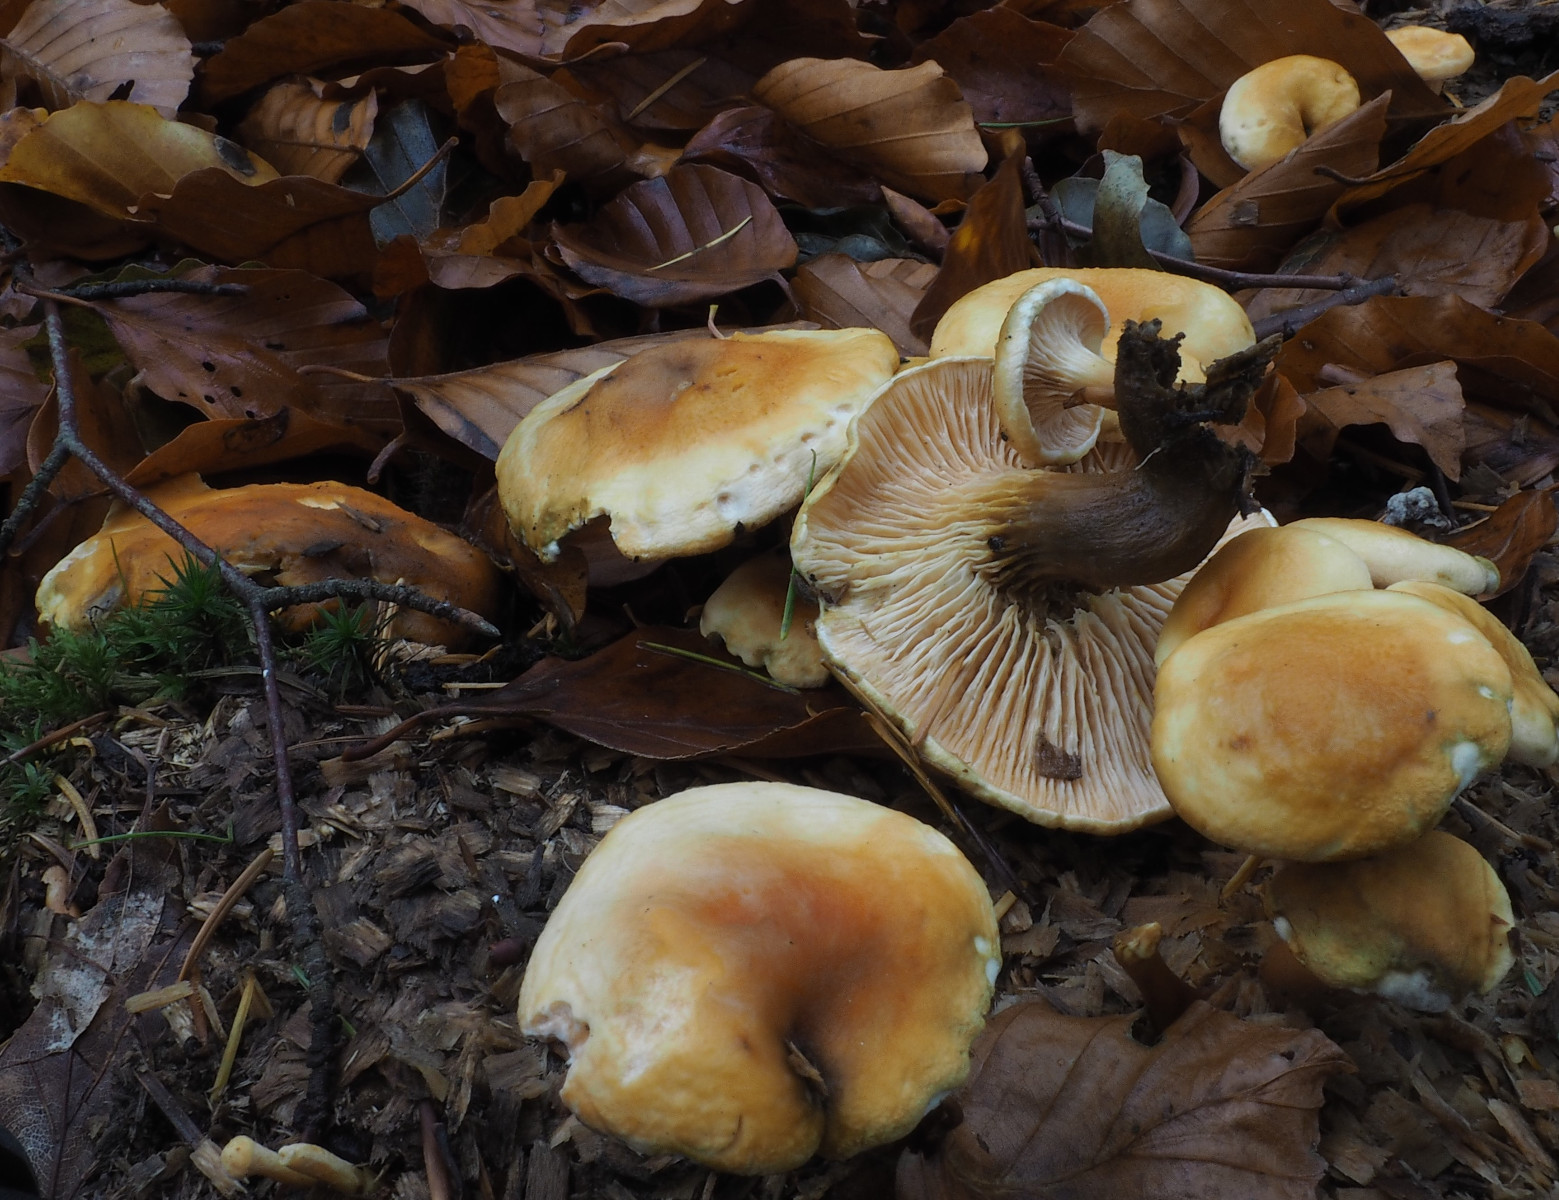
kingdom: Fungi
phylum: Basidiomycota
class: Agaricomycetes
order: Boletales
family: Hygrophoropsidaceae
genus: Hygrophoropsis
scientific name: Hygrophoropsis aurantiaca
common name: almindelig orangekantarel
